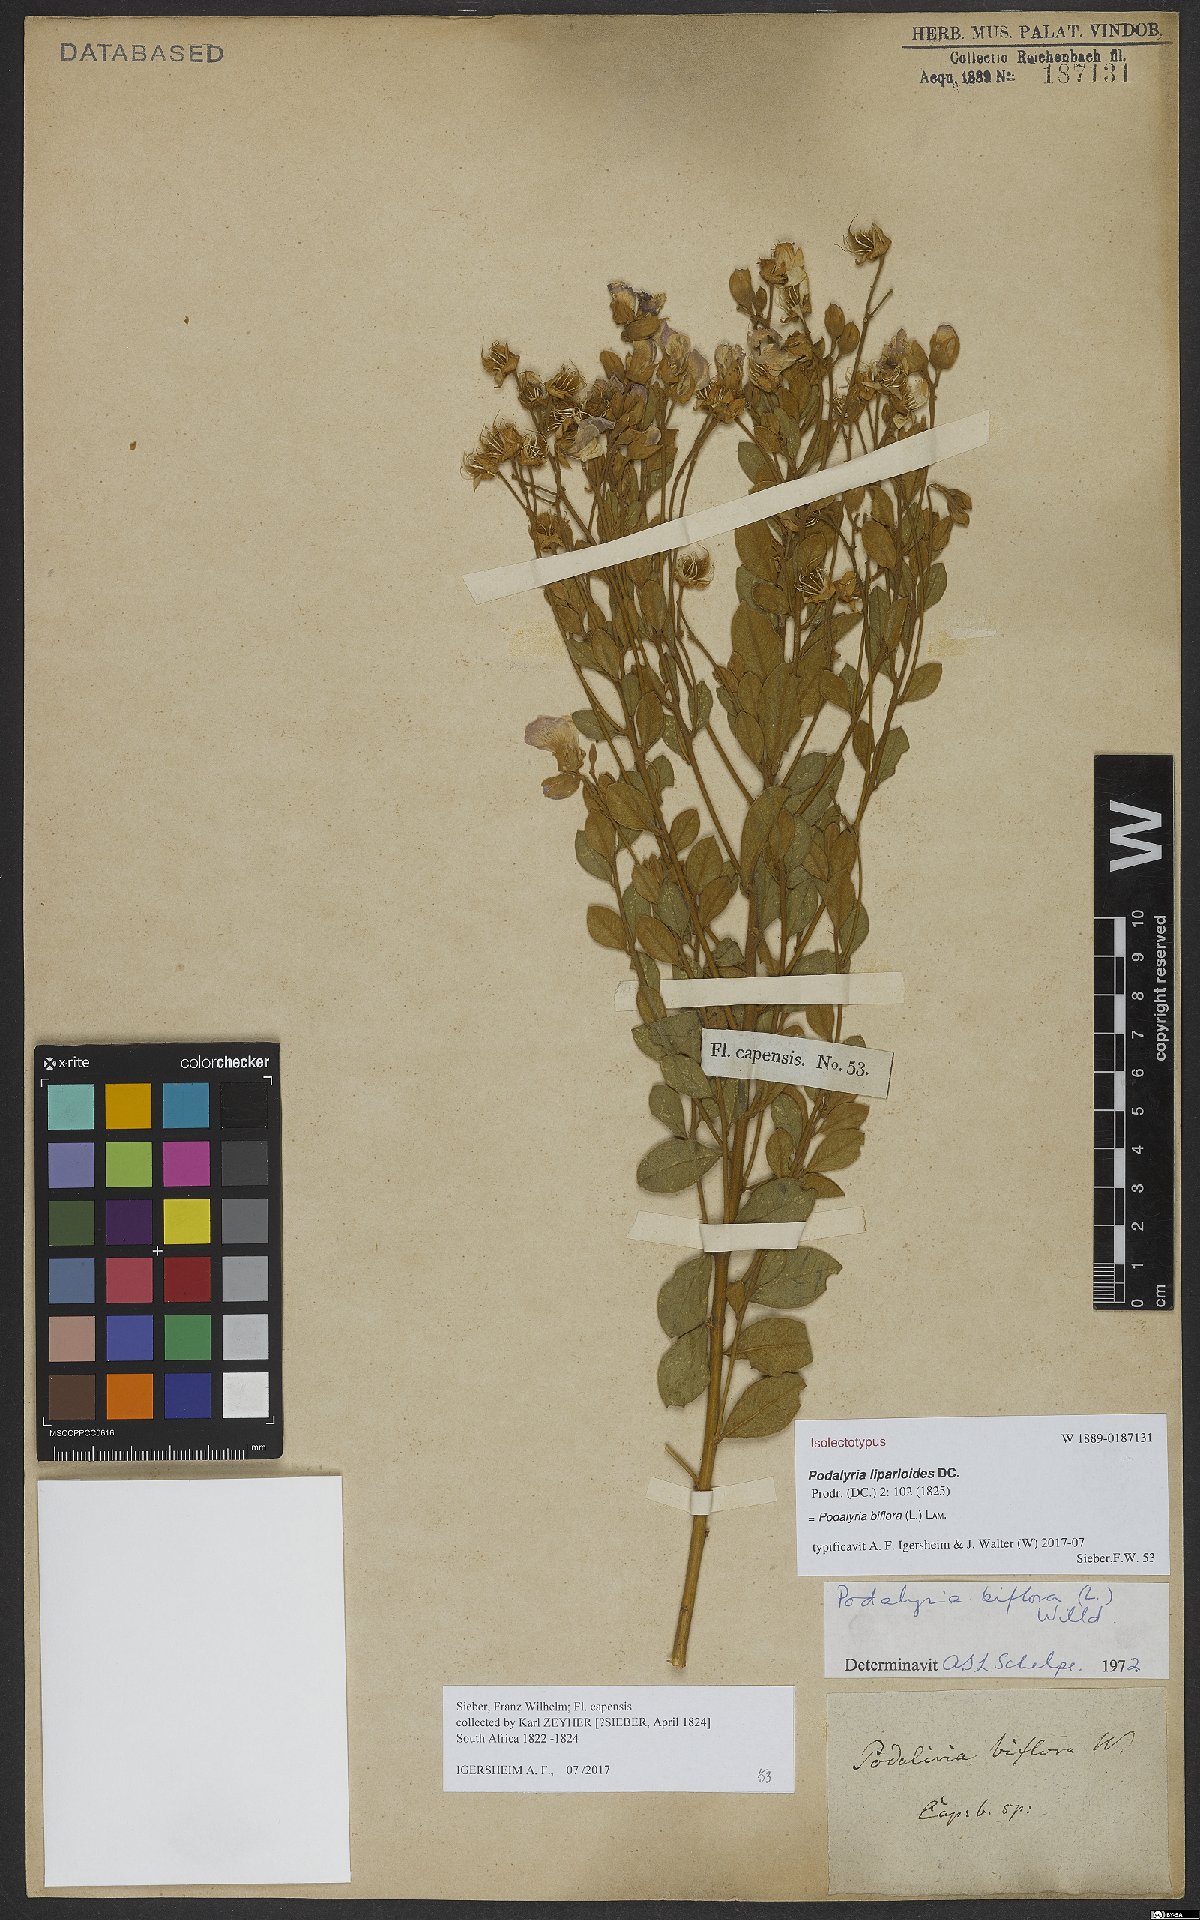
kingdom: Plantae
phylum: Tracheophyta
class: Magnoliopsida
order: Fabales
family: Fabaceae
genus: Podalyria
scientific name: Podalyria biflora
